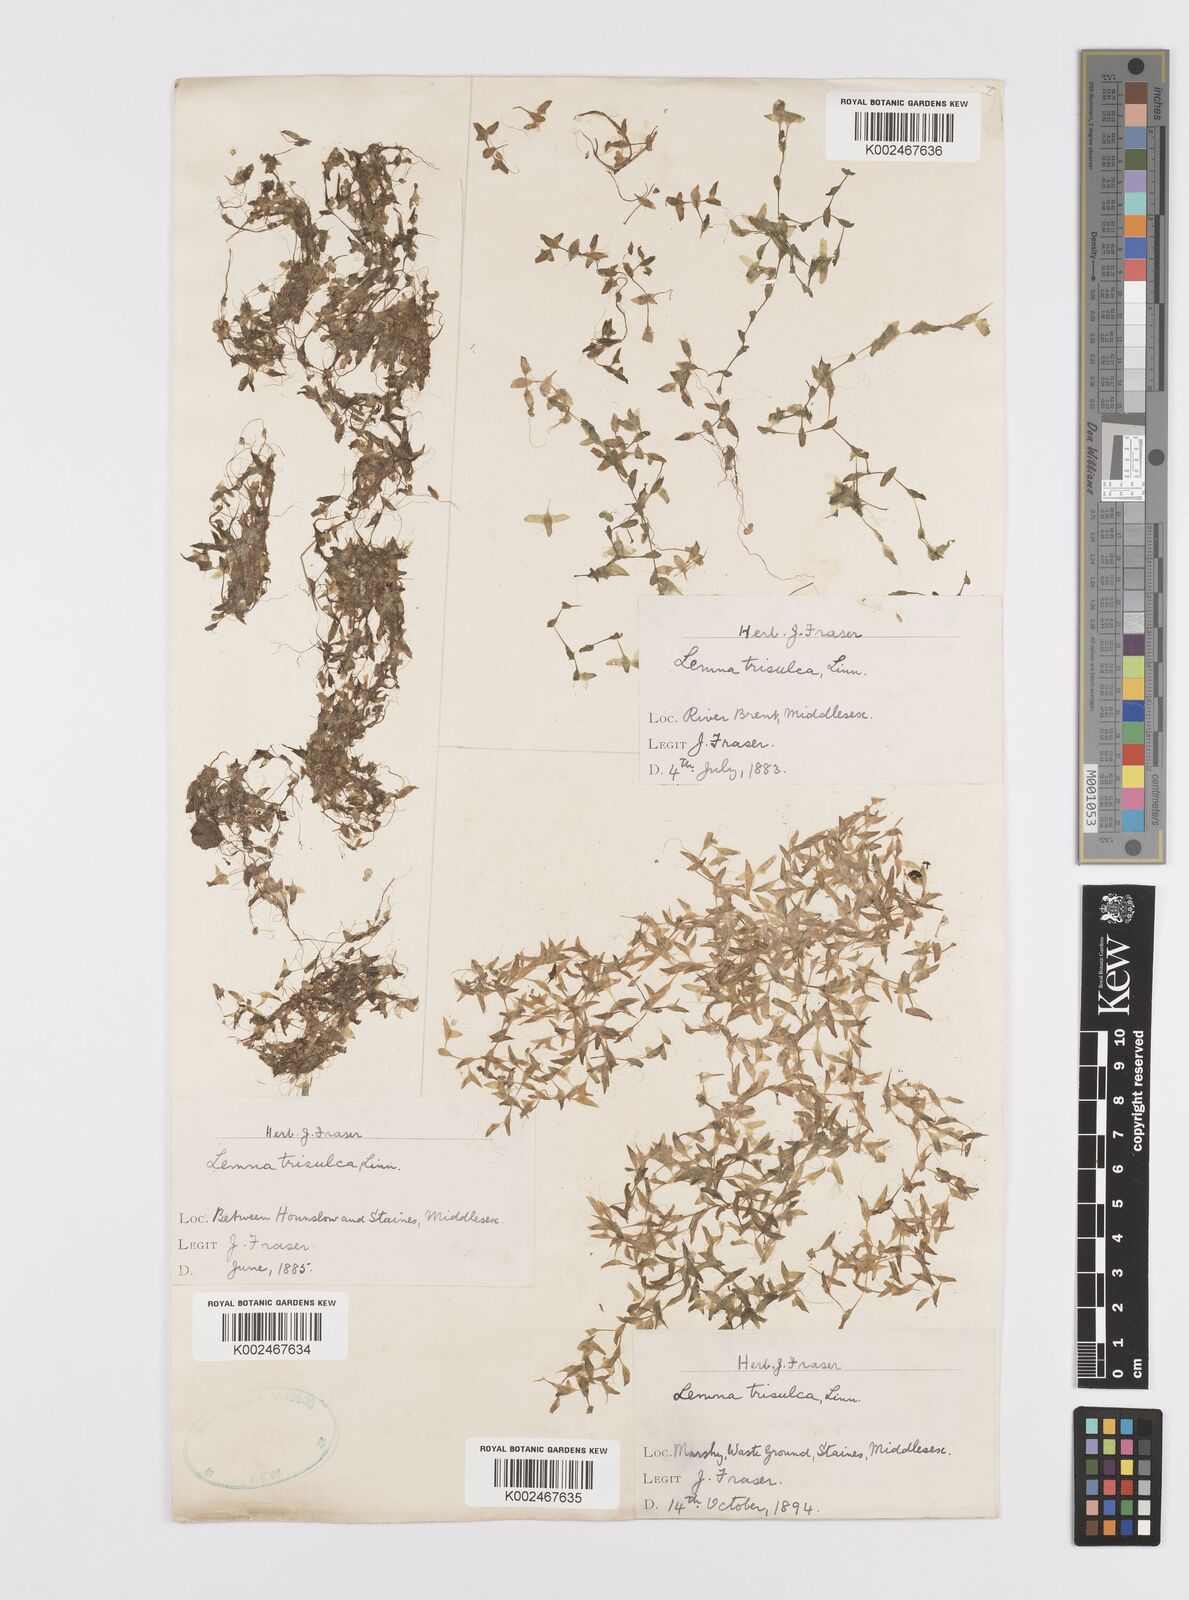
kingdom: Plantae
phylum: Tracheophyta
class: Liliopsida
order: Alismatales
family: Araceae
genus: Lemna
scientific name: Lemna trisulca
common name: Ivy-leaved duckweed
